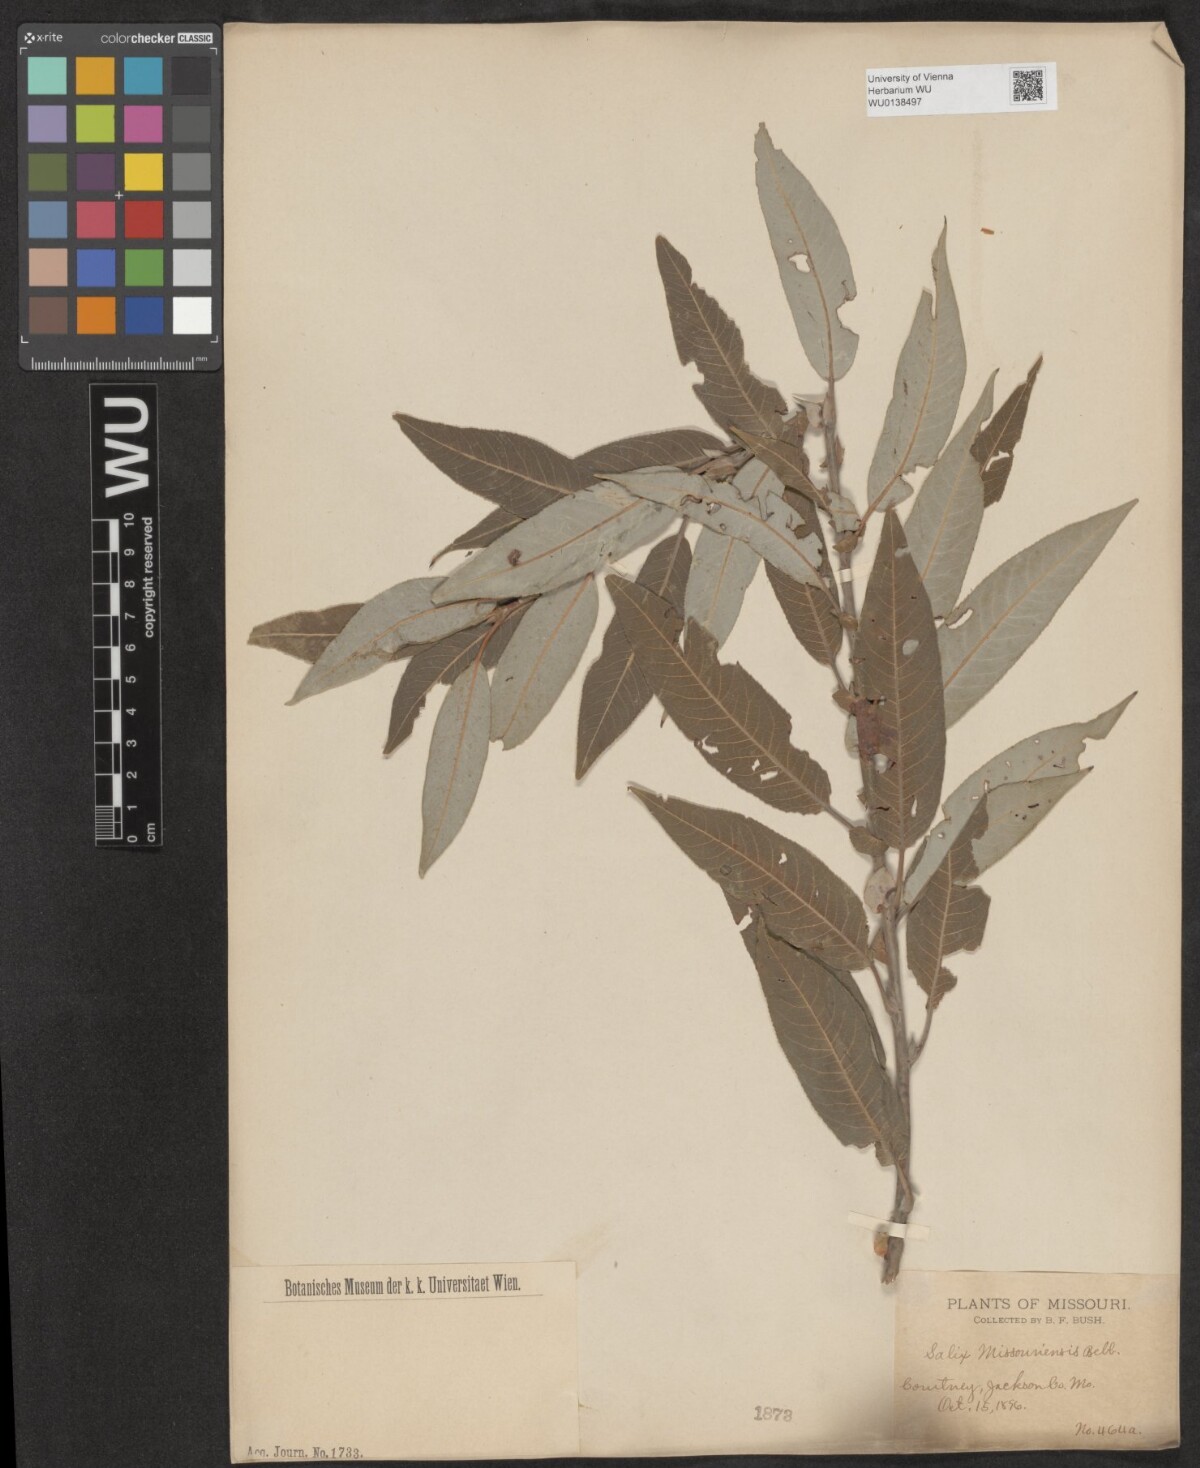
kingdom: Plantae
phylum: Tracheophyta
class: Magnoliopsida
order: Malpighiales
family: Salicaceae
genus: Salix
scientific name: Salix eriocephala
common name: Heart-leaved willow
